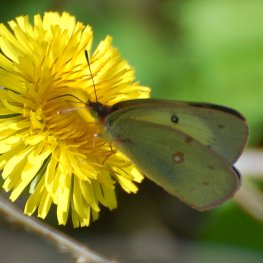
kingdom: Animalia
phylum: Arthropoda
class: Insecta
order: Lepidoptera
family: Pieridae
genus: Colias
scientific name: Colias philodice
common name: Clouded Sulphur
